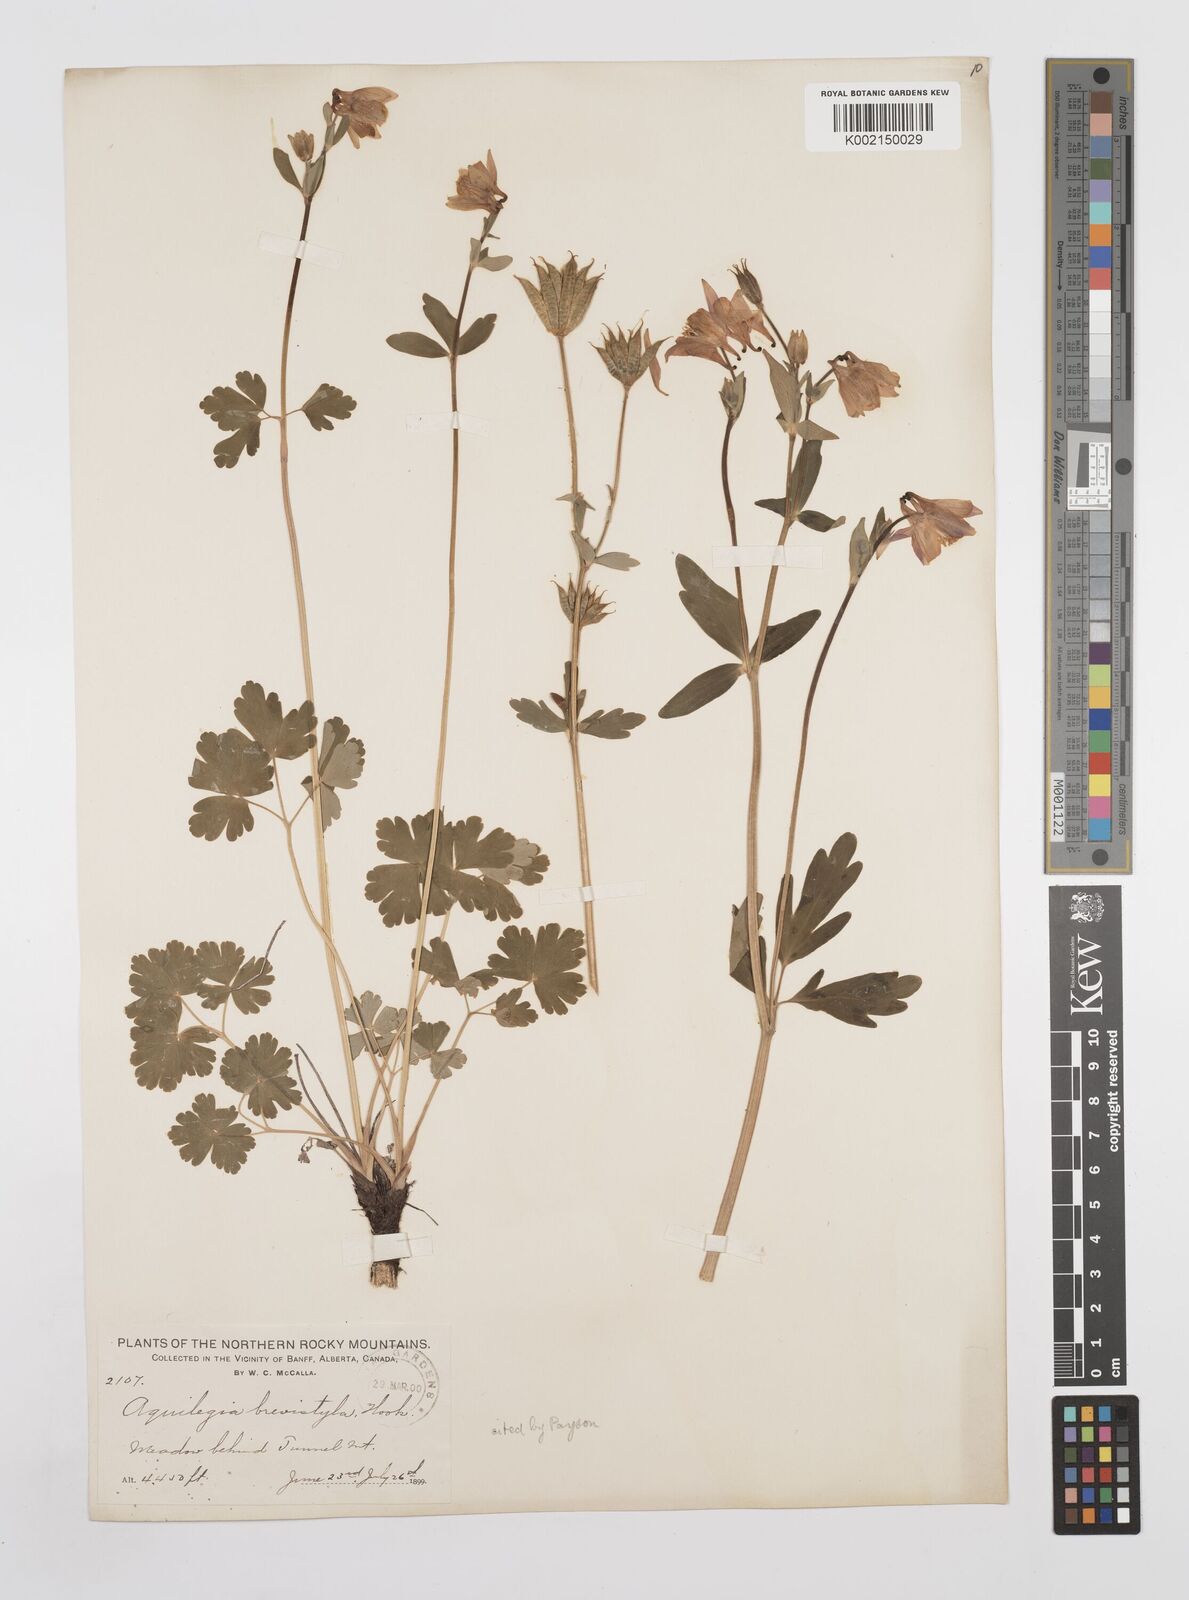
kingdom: Plantae
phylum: Tracheophyta
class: Magnoliopsida
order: Ranunculales
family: Ranunculaceae
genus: Aquilegia
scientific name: Aquilegia brevistyla
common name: Yukon columbine
